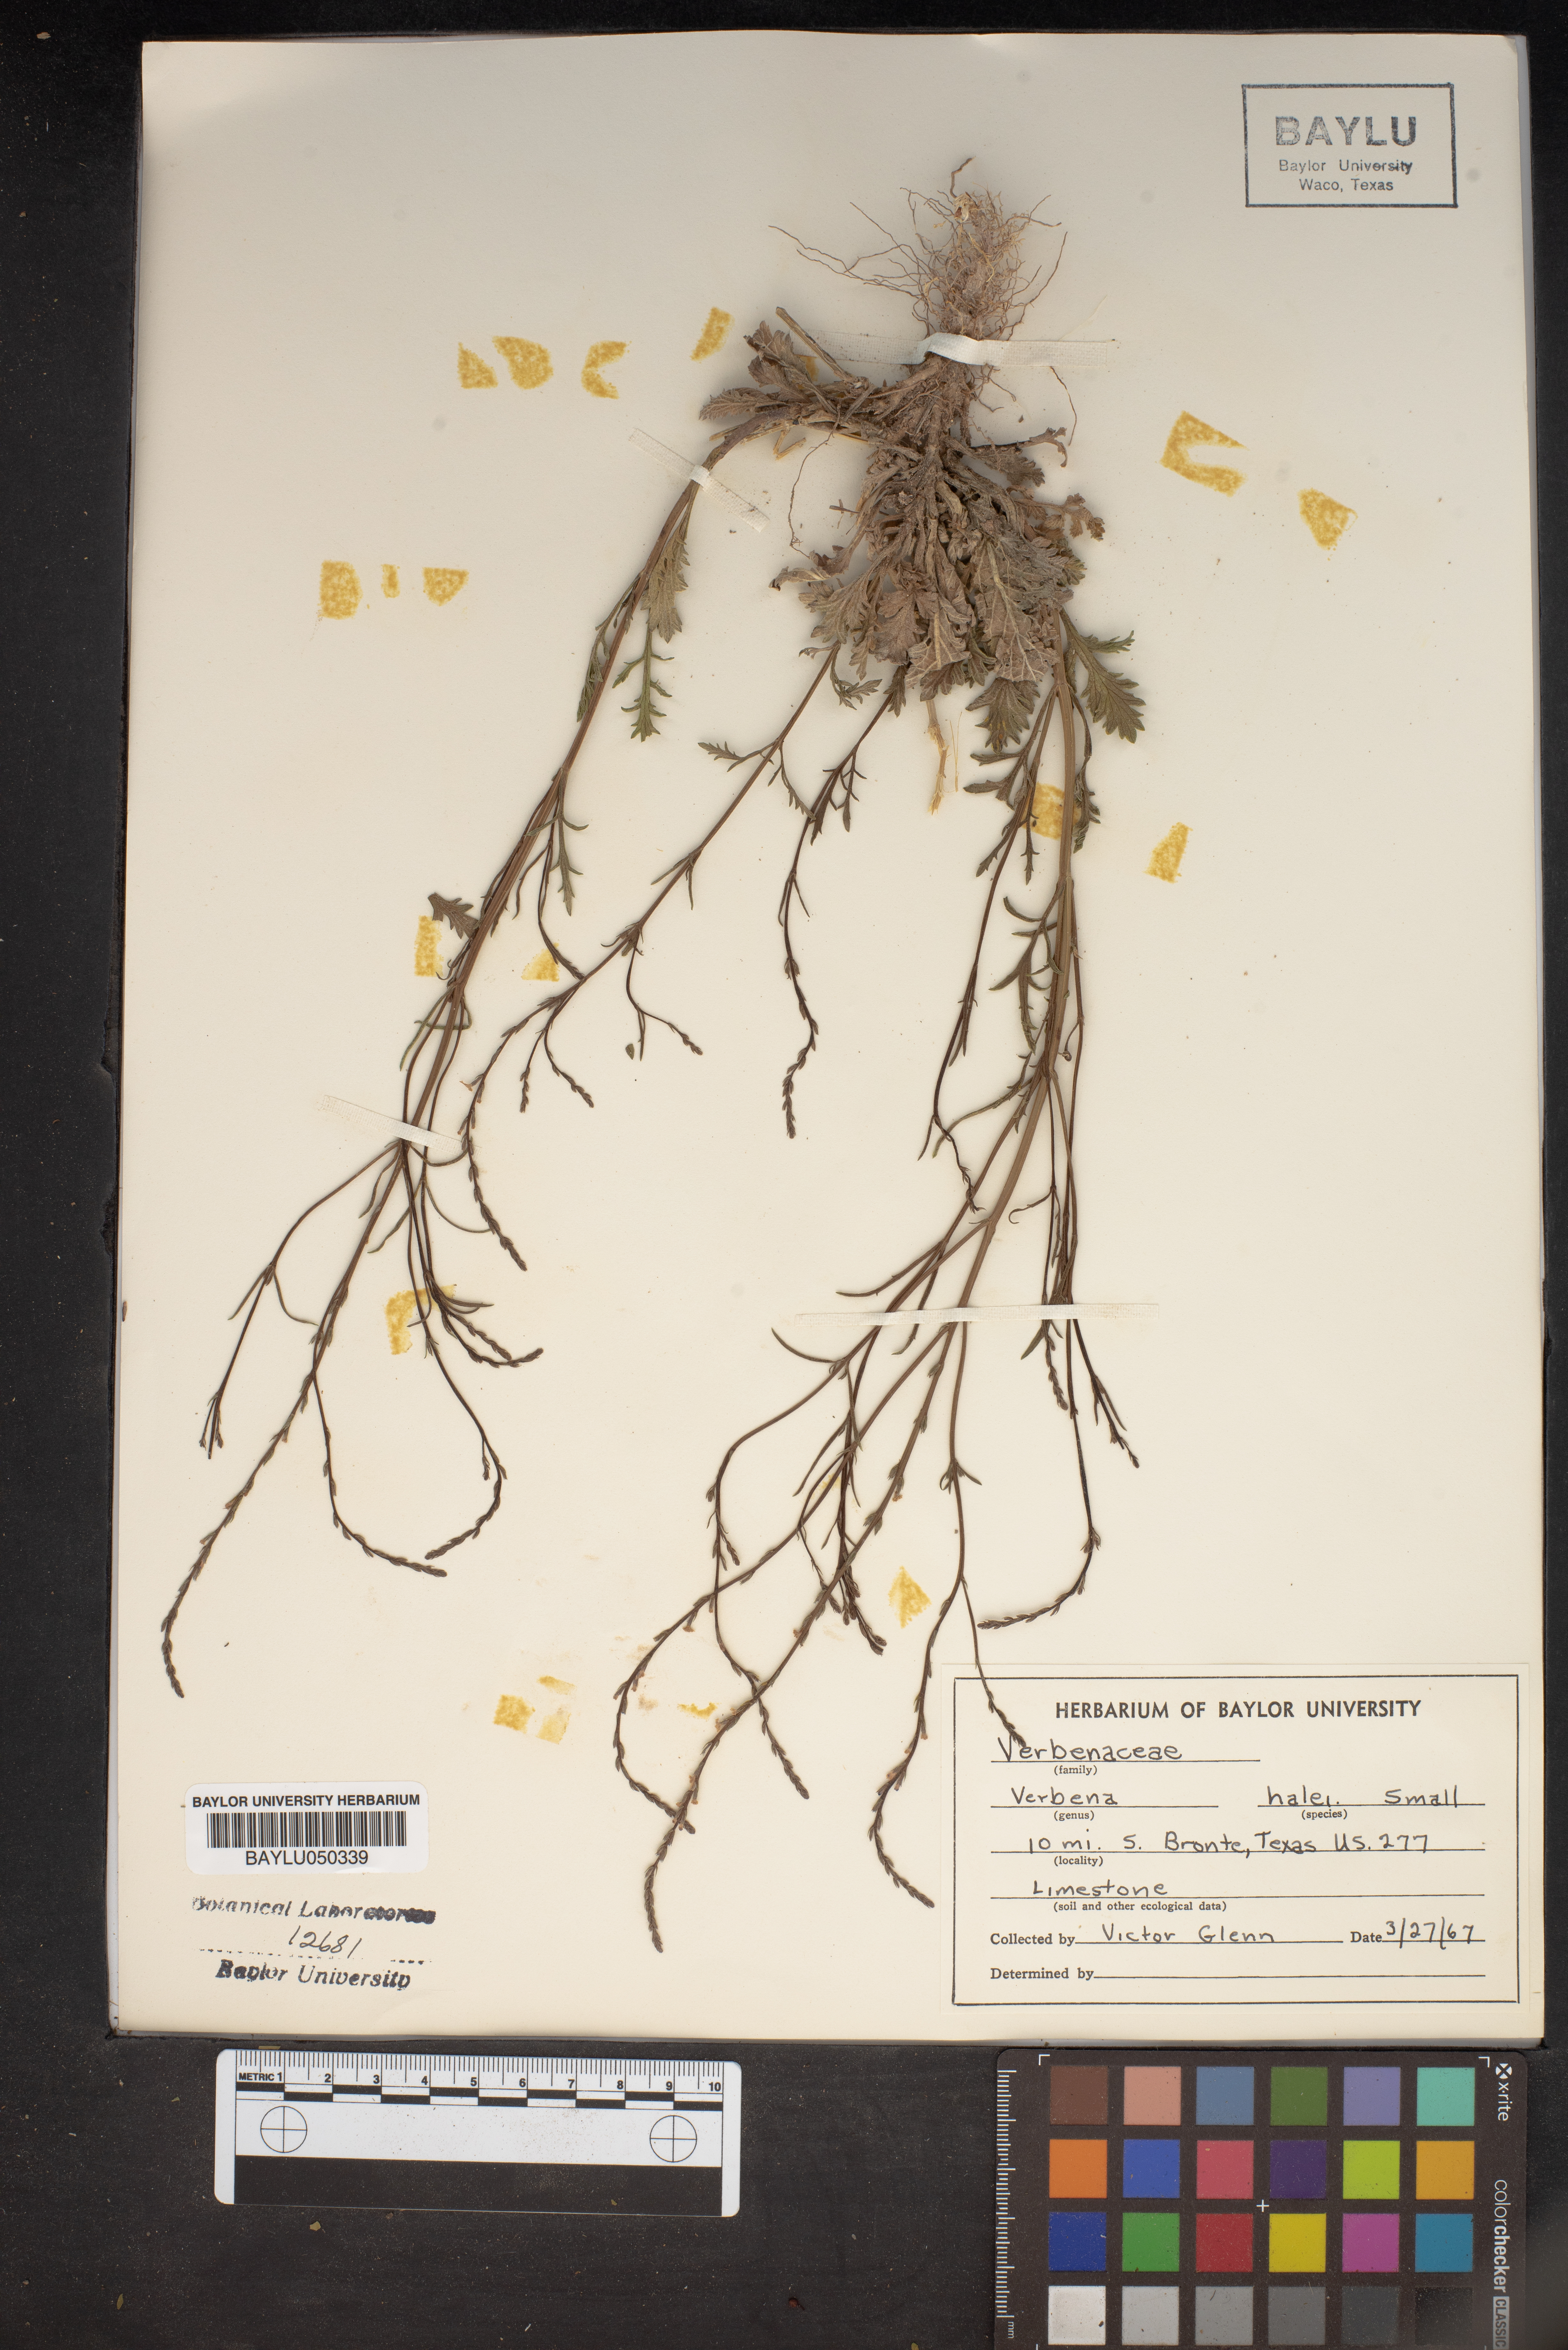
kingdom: Plantae
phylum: Tracheophyta
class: Magnoliopsida
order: Lamiales
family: Verbenaceae
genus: Verbena
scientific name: Verbena halei
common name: Texas vervain
